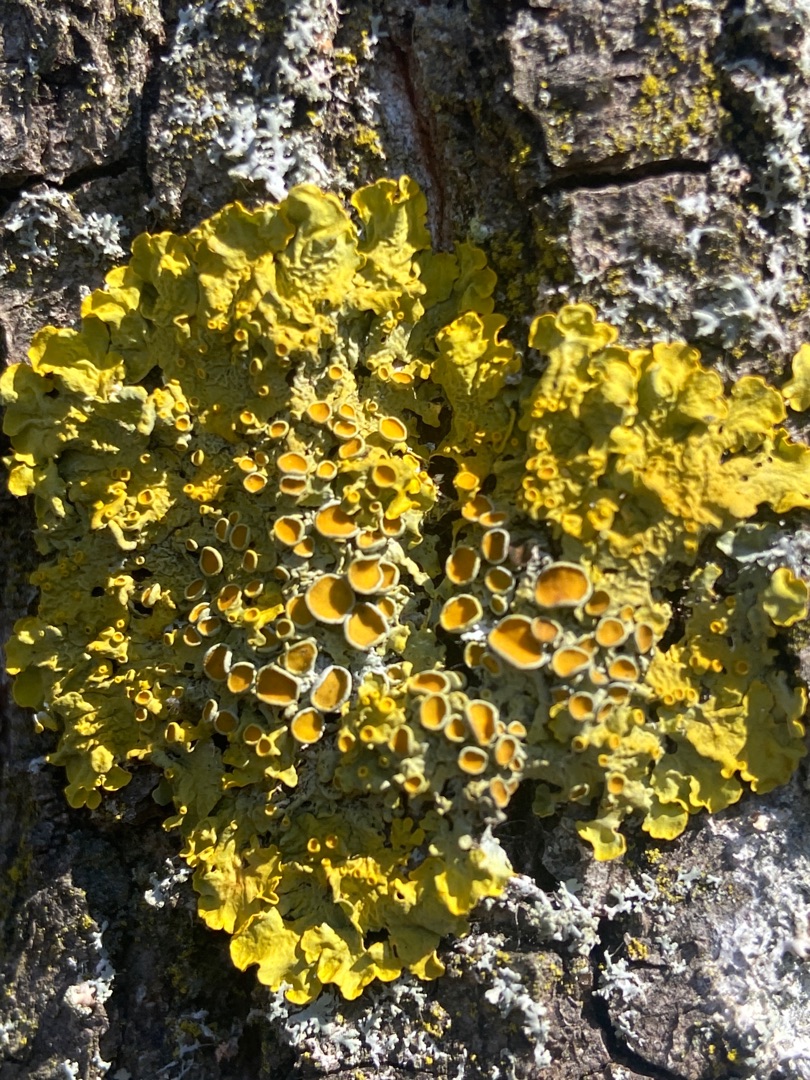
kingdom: Fungi
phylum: Ascomycota
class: Lecanoromycetes
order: Teloschistales
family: Teloschistaceae
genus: Xanthoria
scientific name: Xanthoria parietina
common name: Almindelig væggelav
